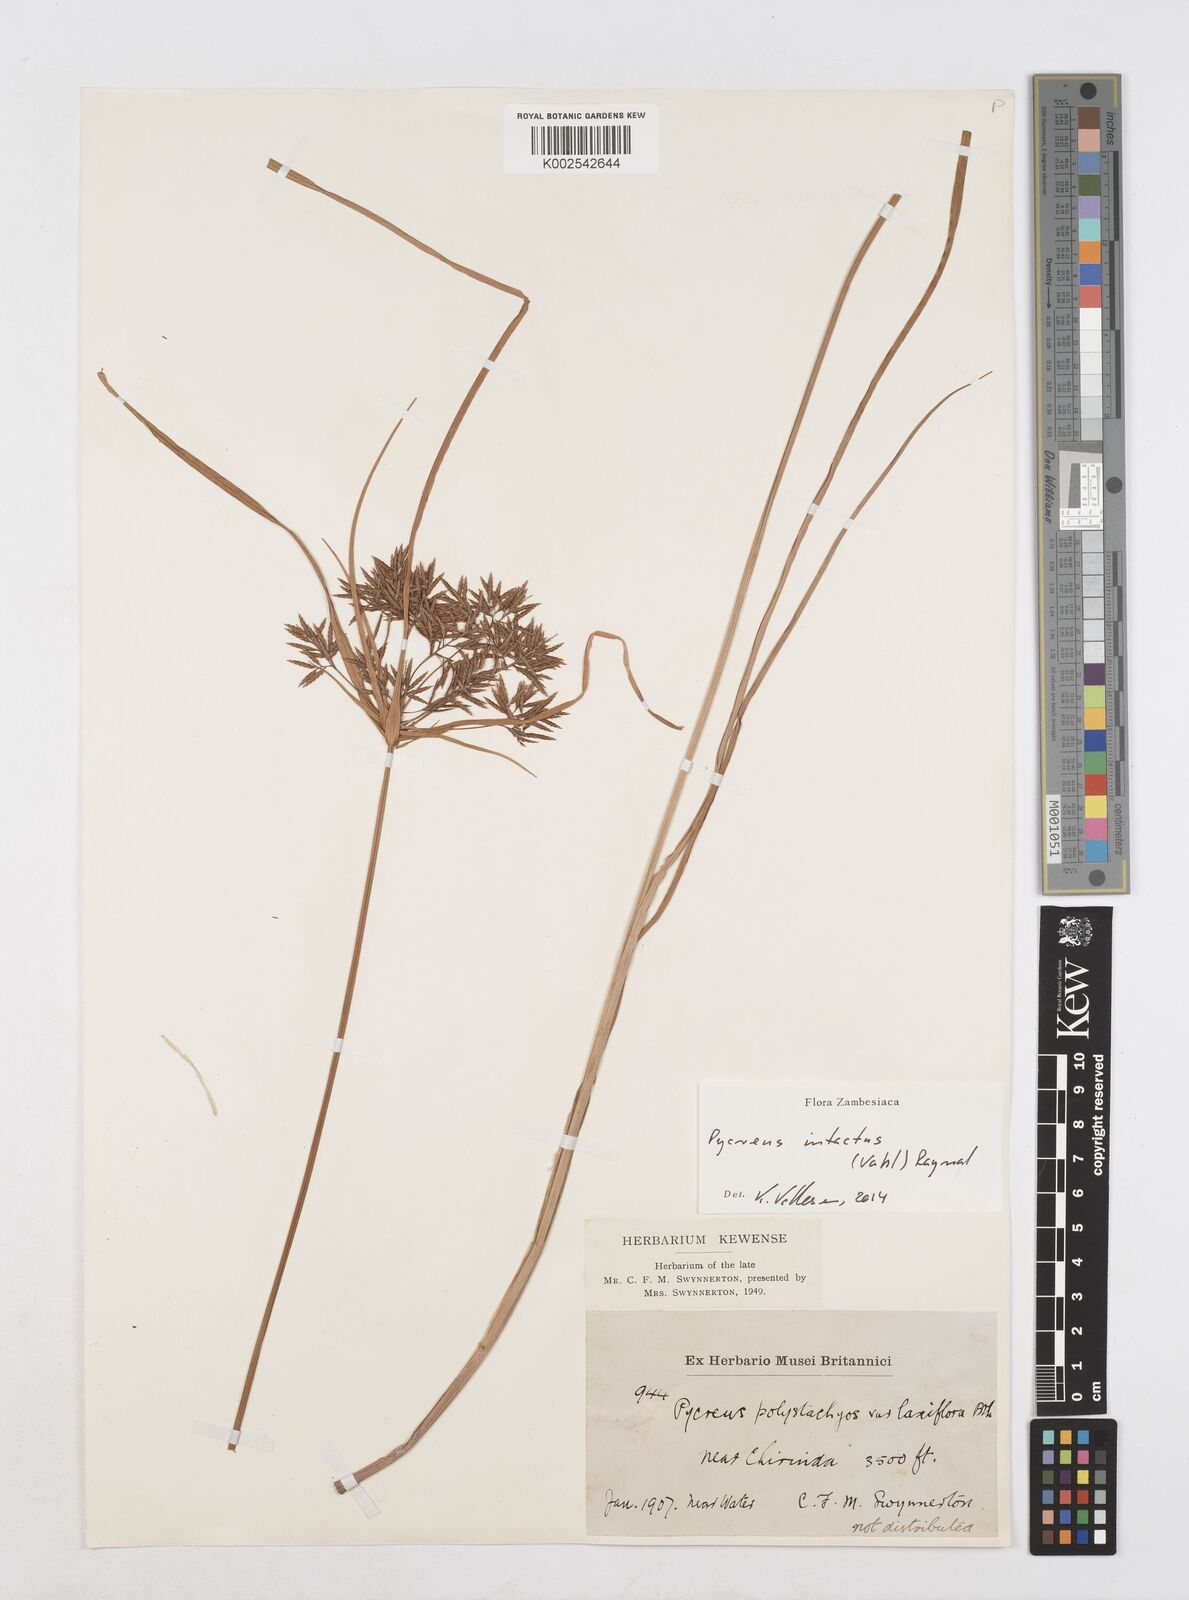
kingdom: Plantae
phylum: Tracheophyta
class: Liliopsida
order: Poales
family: Cyperaceae
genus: Cyperus
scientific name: Cyperus intactus
